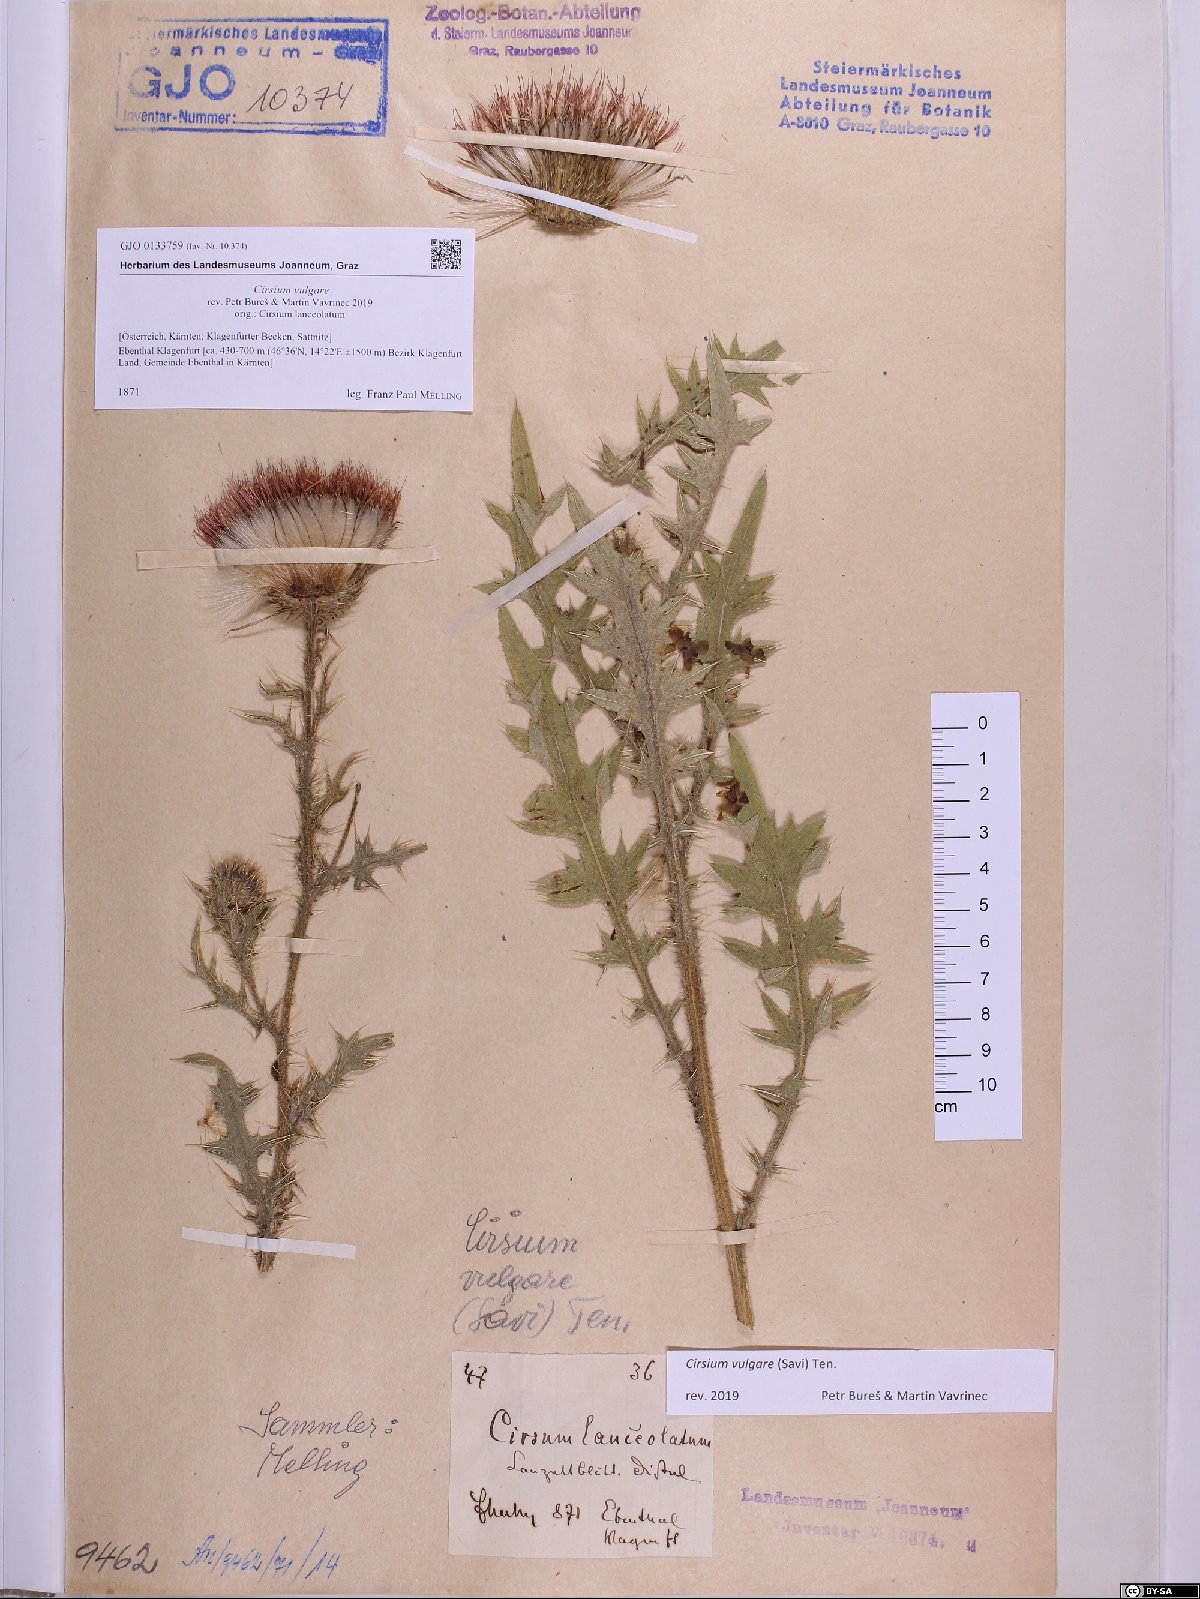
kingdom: Plantae
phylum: Tracheophyta
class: Magnoliopsida
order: Asterales
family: Asteraceae
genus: Cirsium
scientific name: Cirsium vulgare
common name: Bull thistle
